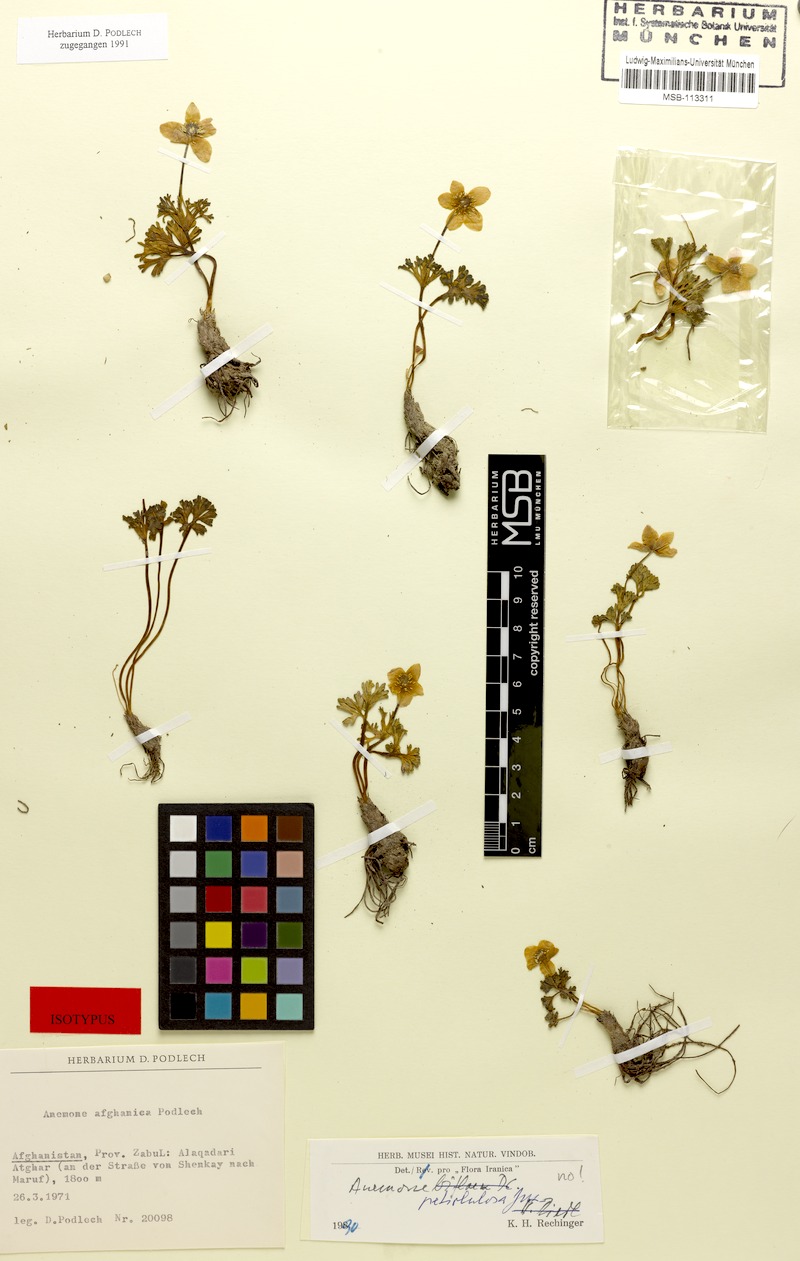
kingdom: Plantae
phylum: Tracheophyta
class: Magnoliopsida
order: Ranunculales
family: Ranunculaceae
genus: Anemone
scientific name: Anemone afghanica
